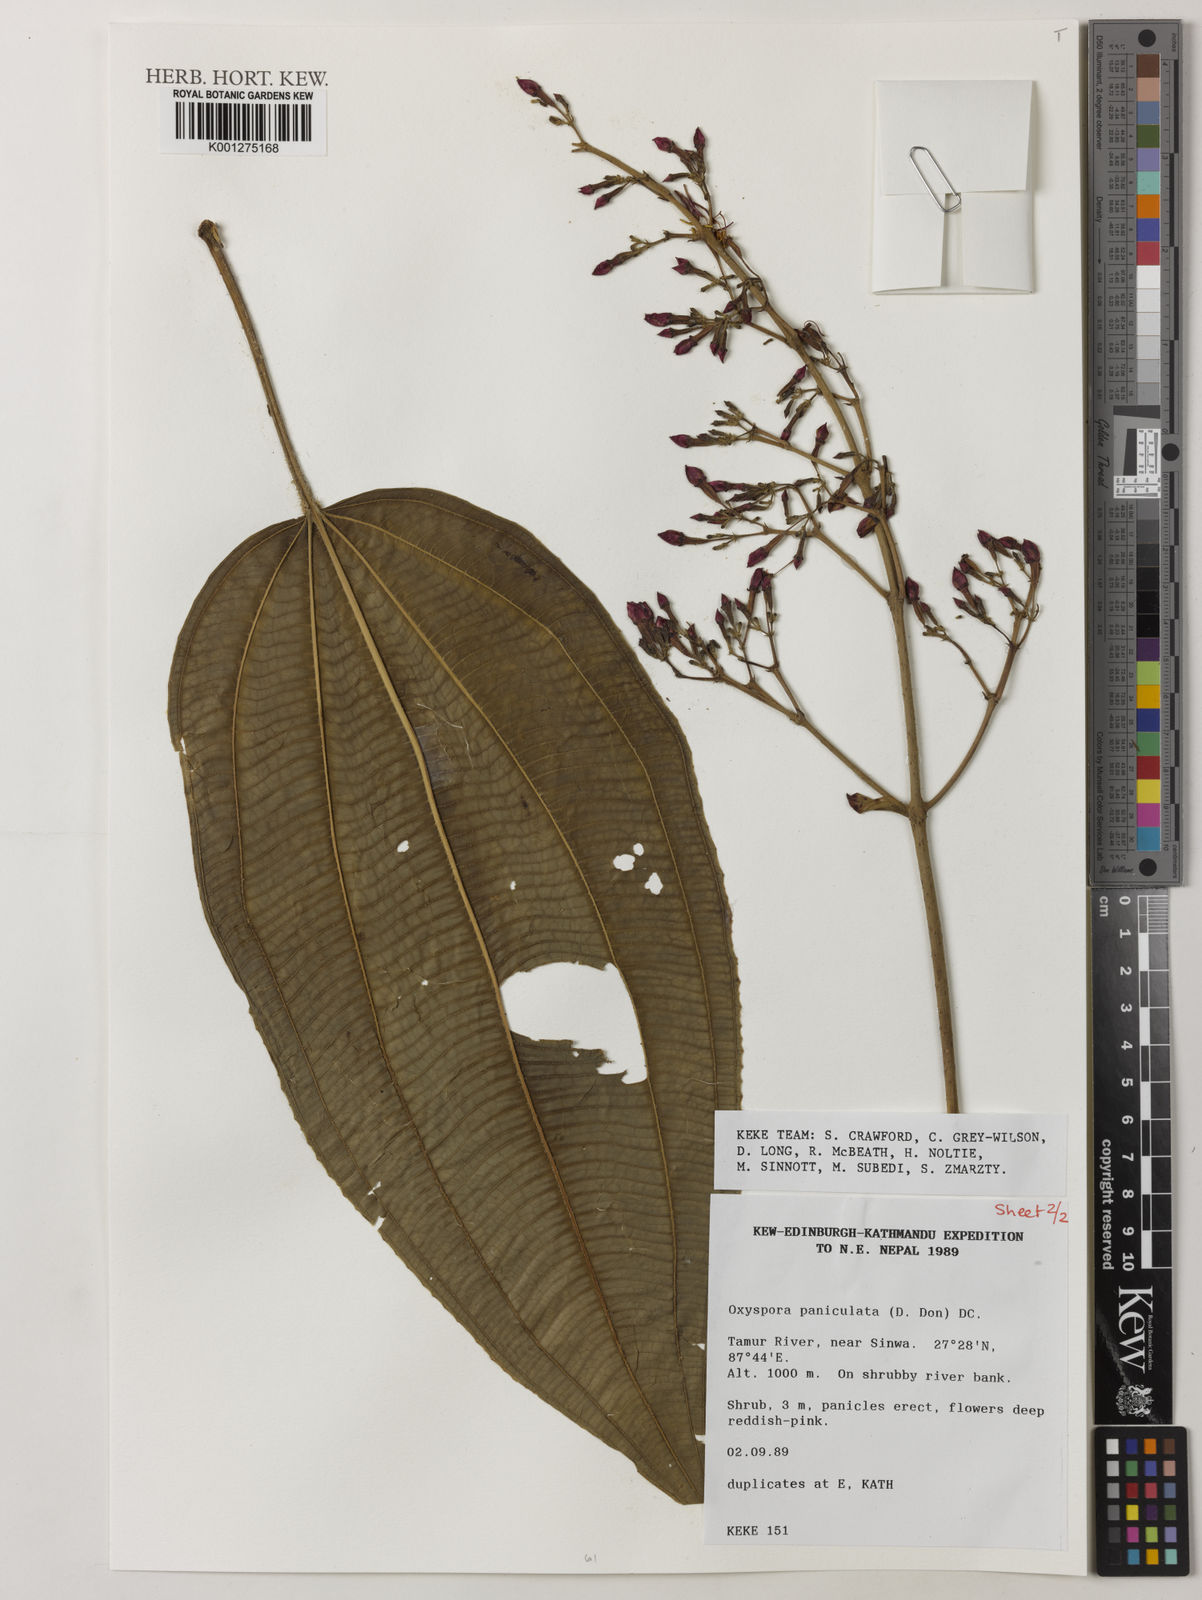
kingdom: Plantae
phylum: Tracheophyta
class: Magnoliopsida
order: Myrtales
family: Melastomataceae
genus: Oxyspora
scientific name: Oxyspora paniculata
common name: Bristletips
